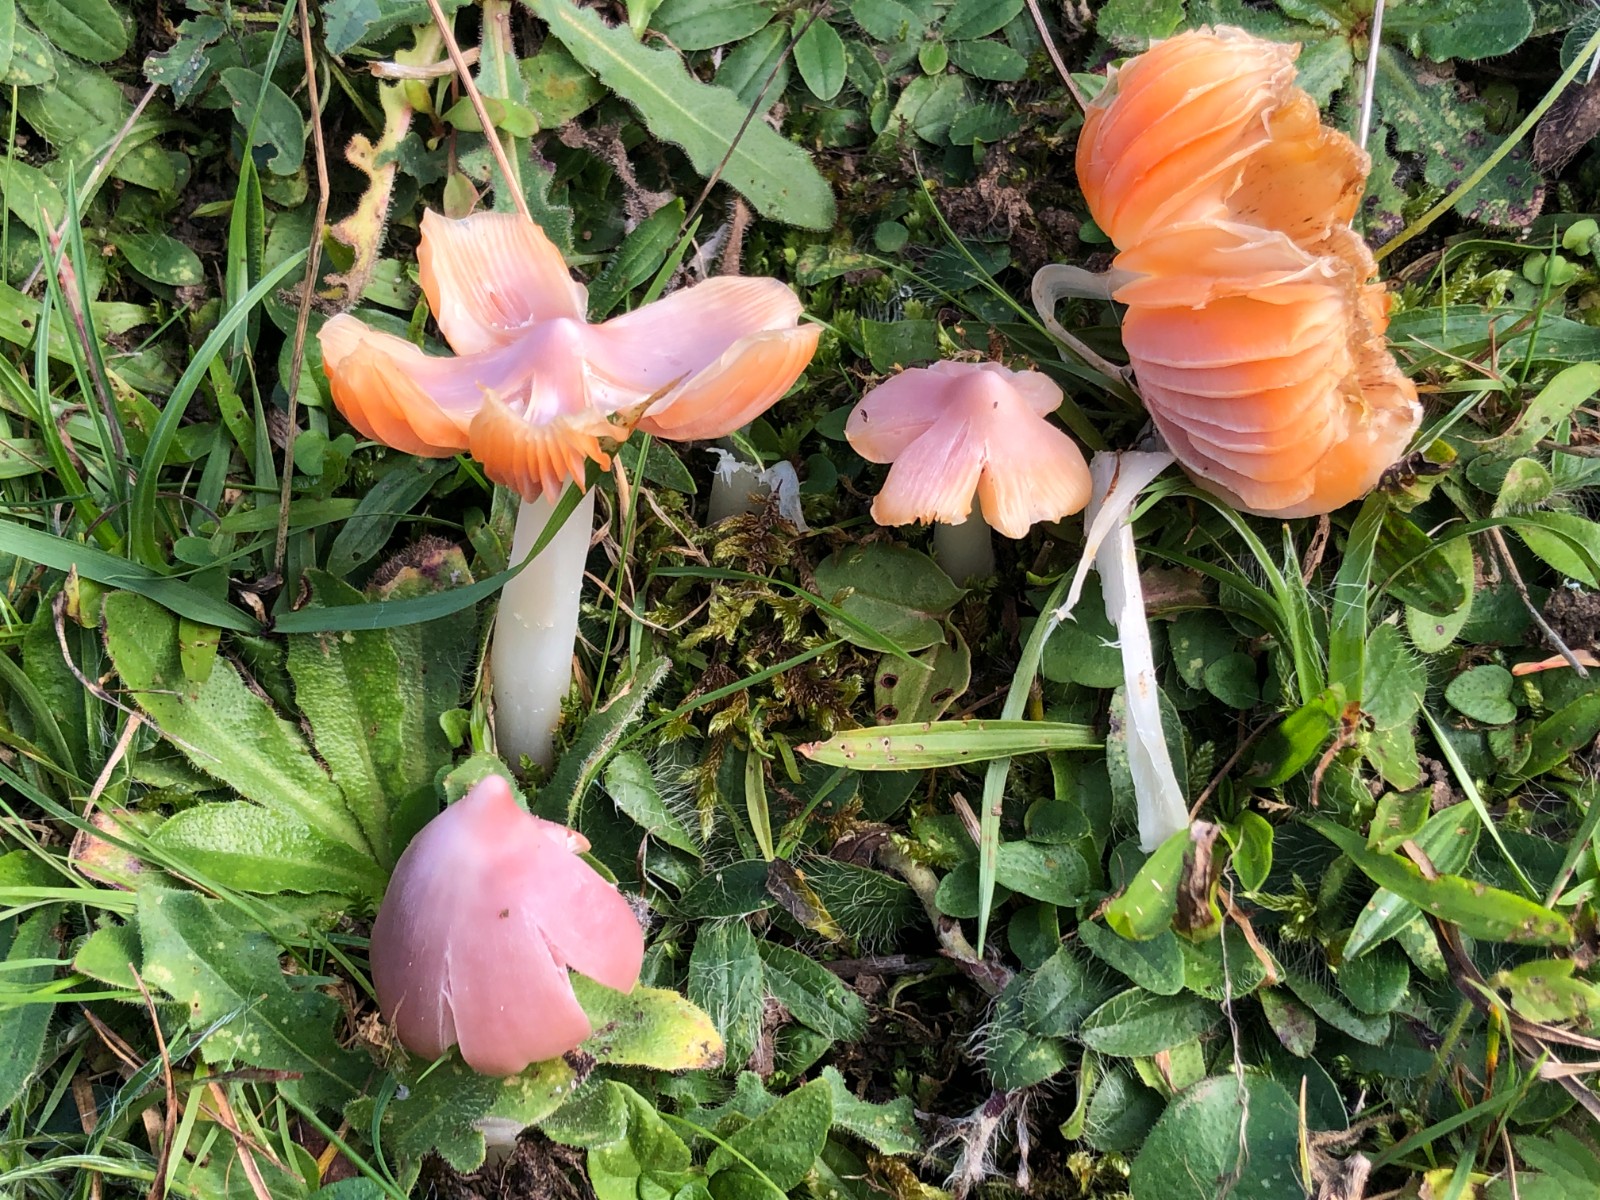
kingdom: Fungi
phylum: Basidiomycota
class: Agaricomycetes
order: Agaricales
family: Hygrophoraceae
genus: Porpolomopsis
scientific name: Porpolomopsis calyptriformis
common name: rosenrød vokshat
